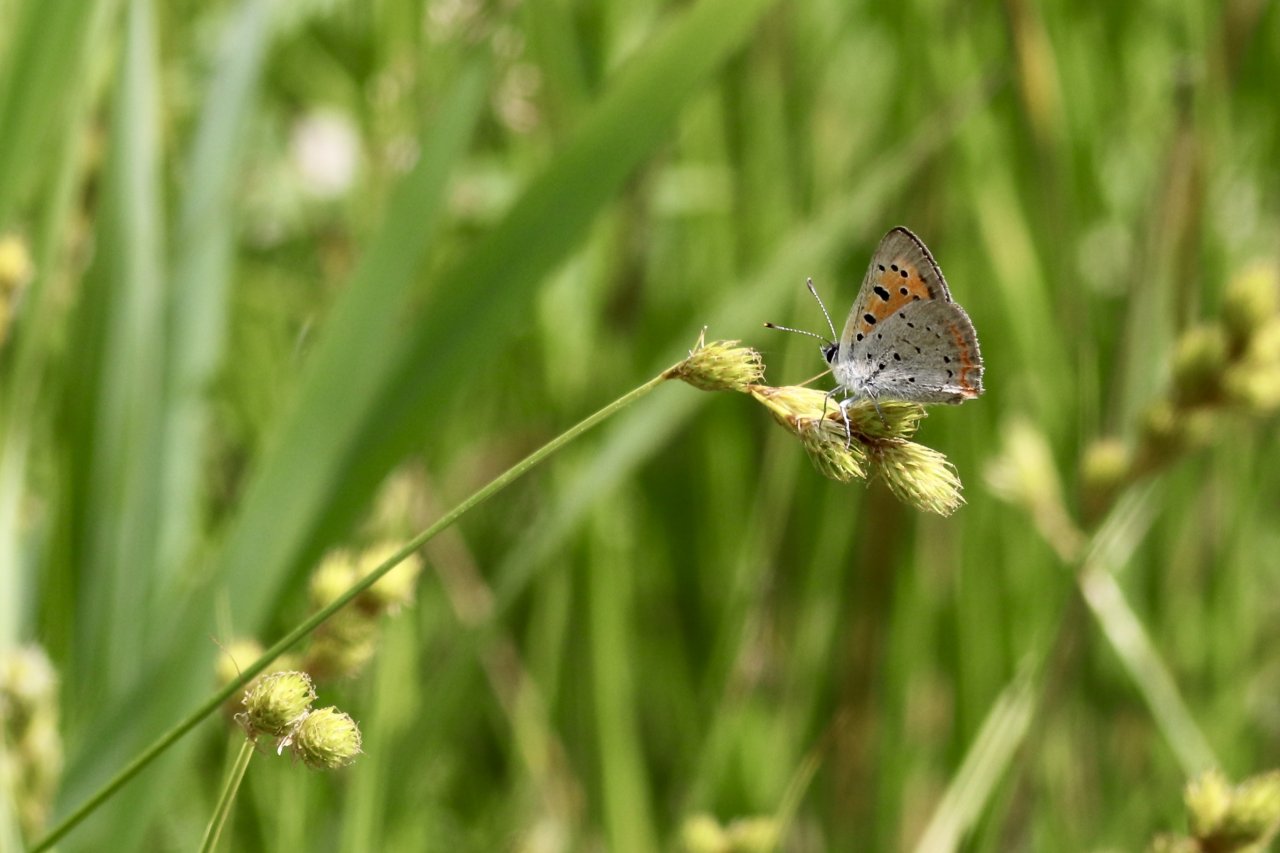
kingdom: Animalia
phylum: Arthropoda
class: Insecta
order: Lepidoptera
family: Lycaenidae
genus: Lycaena
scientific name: Lycaena phlaeas
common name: American Copper
